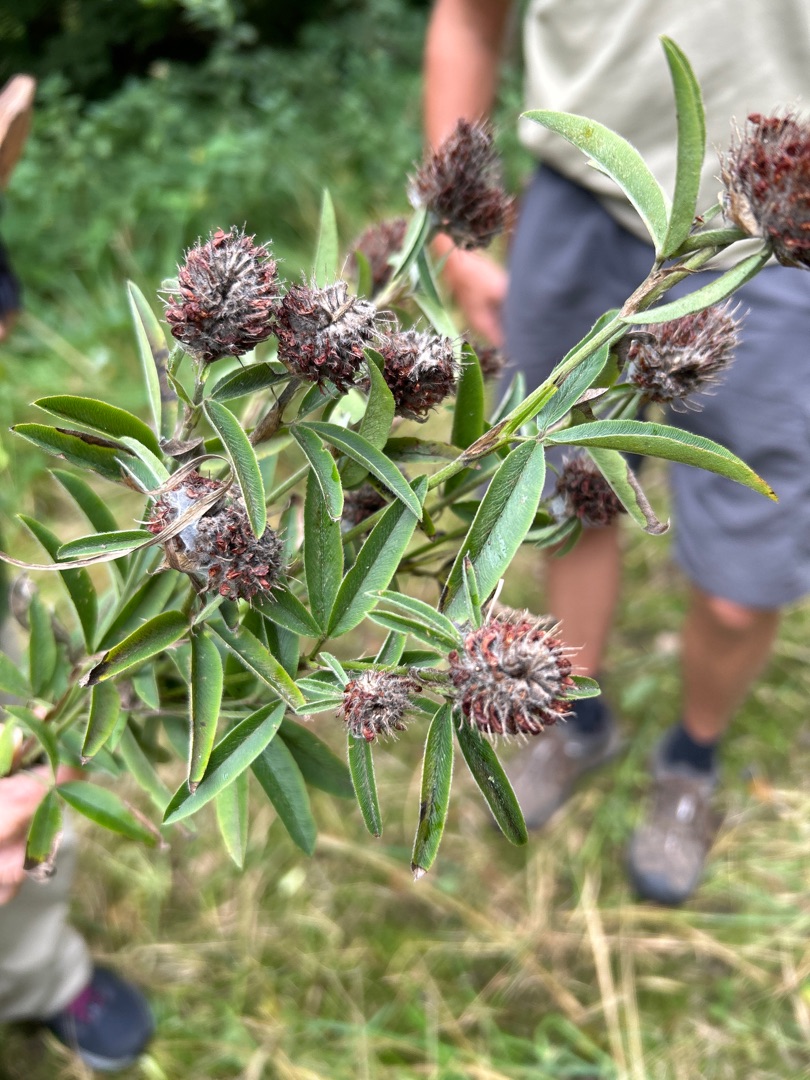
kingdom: Plantae
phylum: Tracheophyta
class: Magnoliopsida
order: Fabales
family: Fabaceae
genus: Trifolium
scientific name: Trifolium alpestre
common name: Skov-kløver
